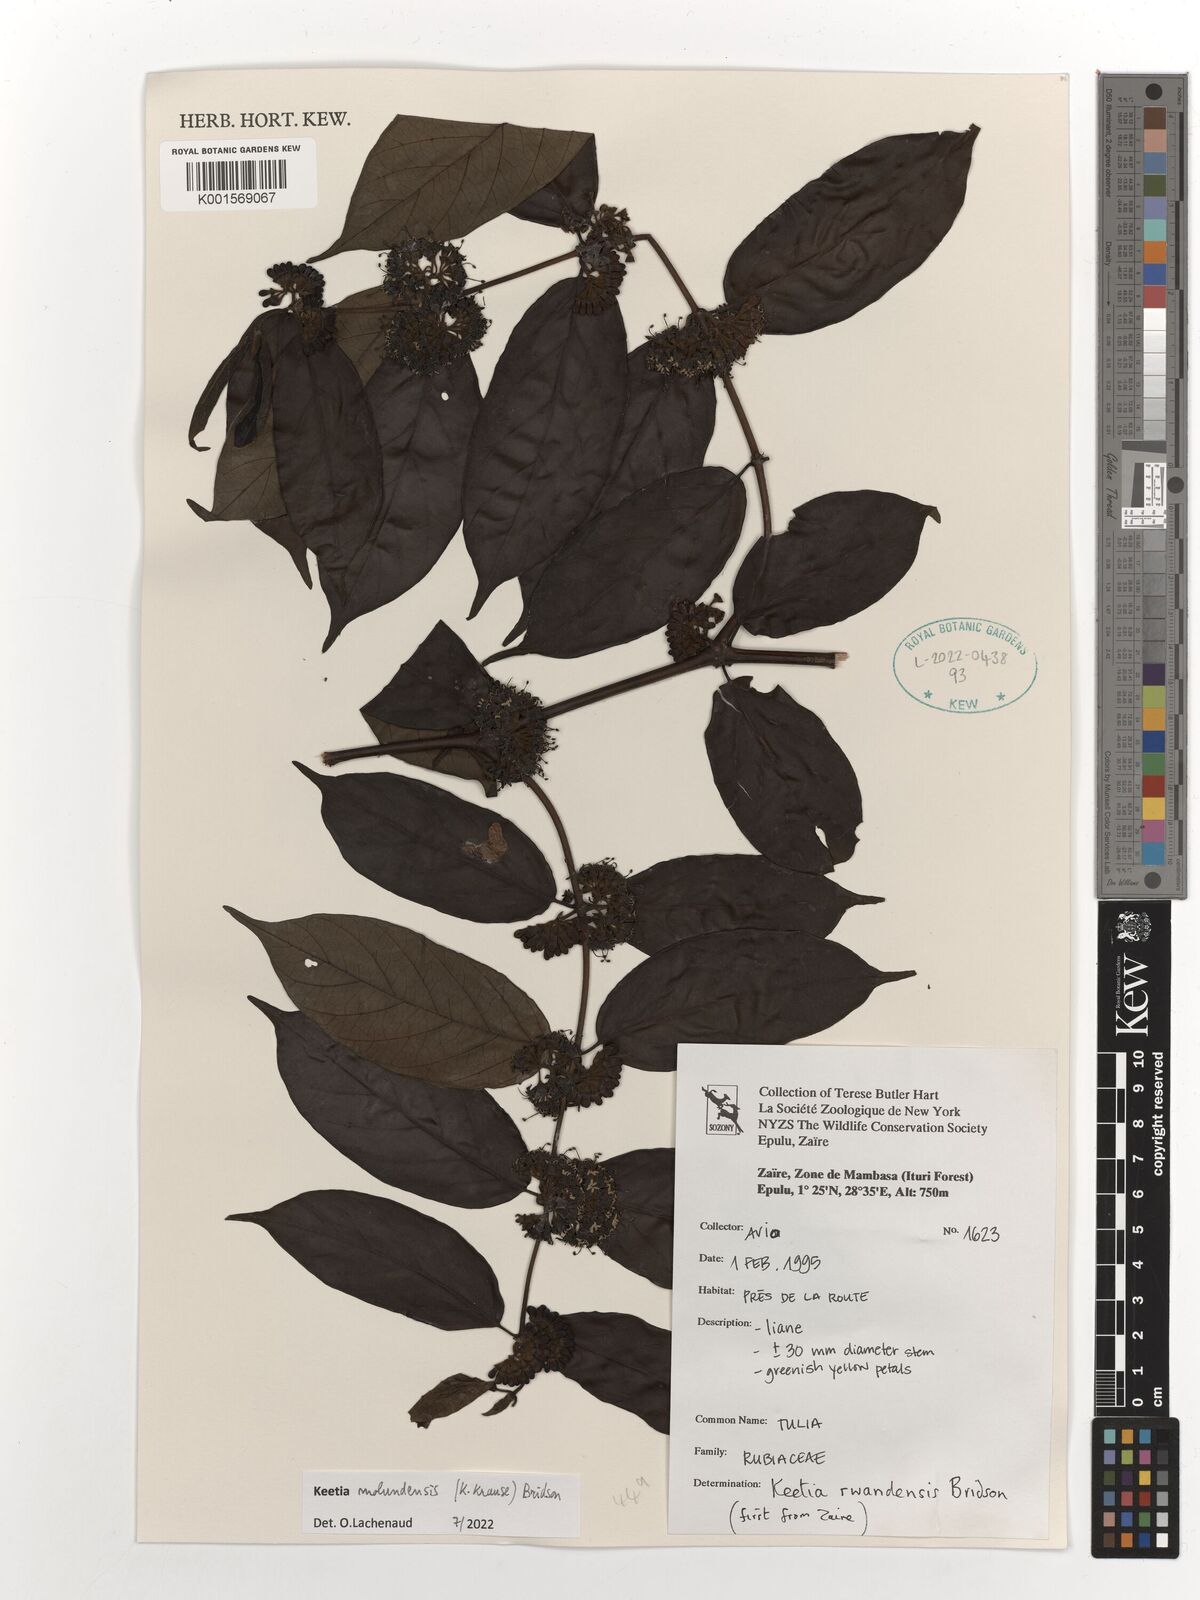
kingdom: Plantae
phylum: Tracheophyta
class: Magnoliopsida
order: Gentianales
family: Rubiaceae
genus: Keetia
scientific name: Keetia molundensis
